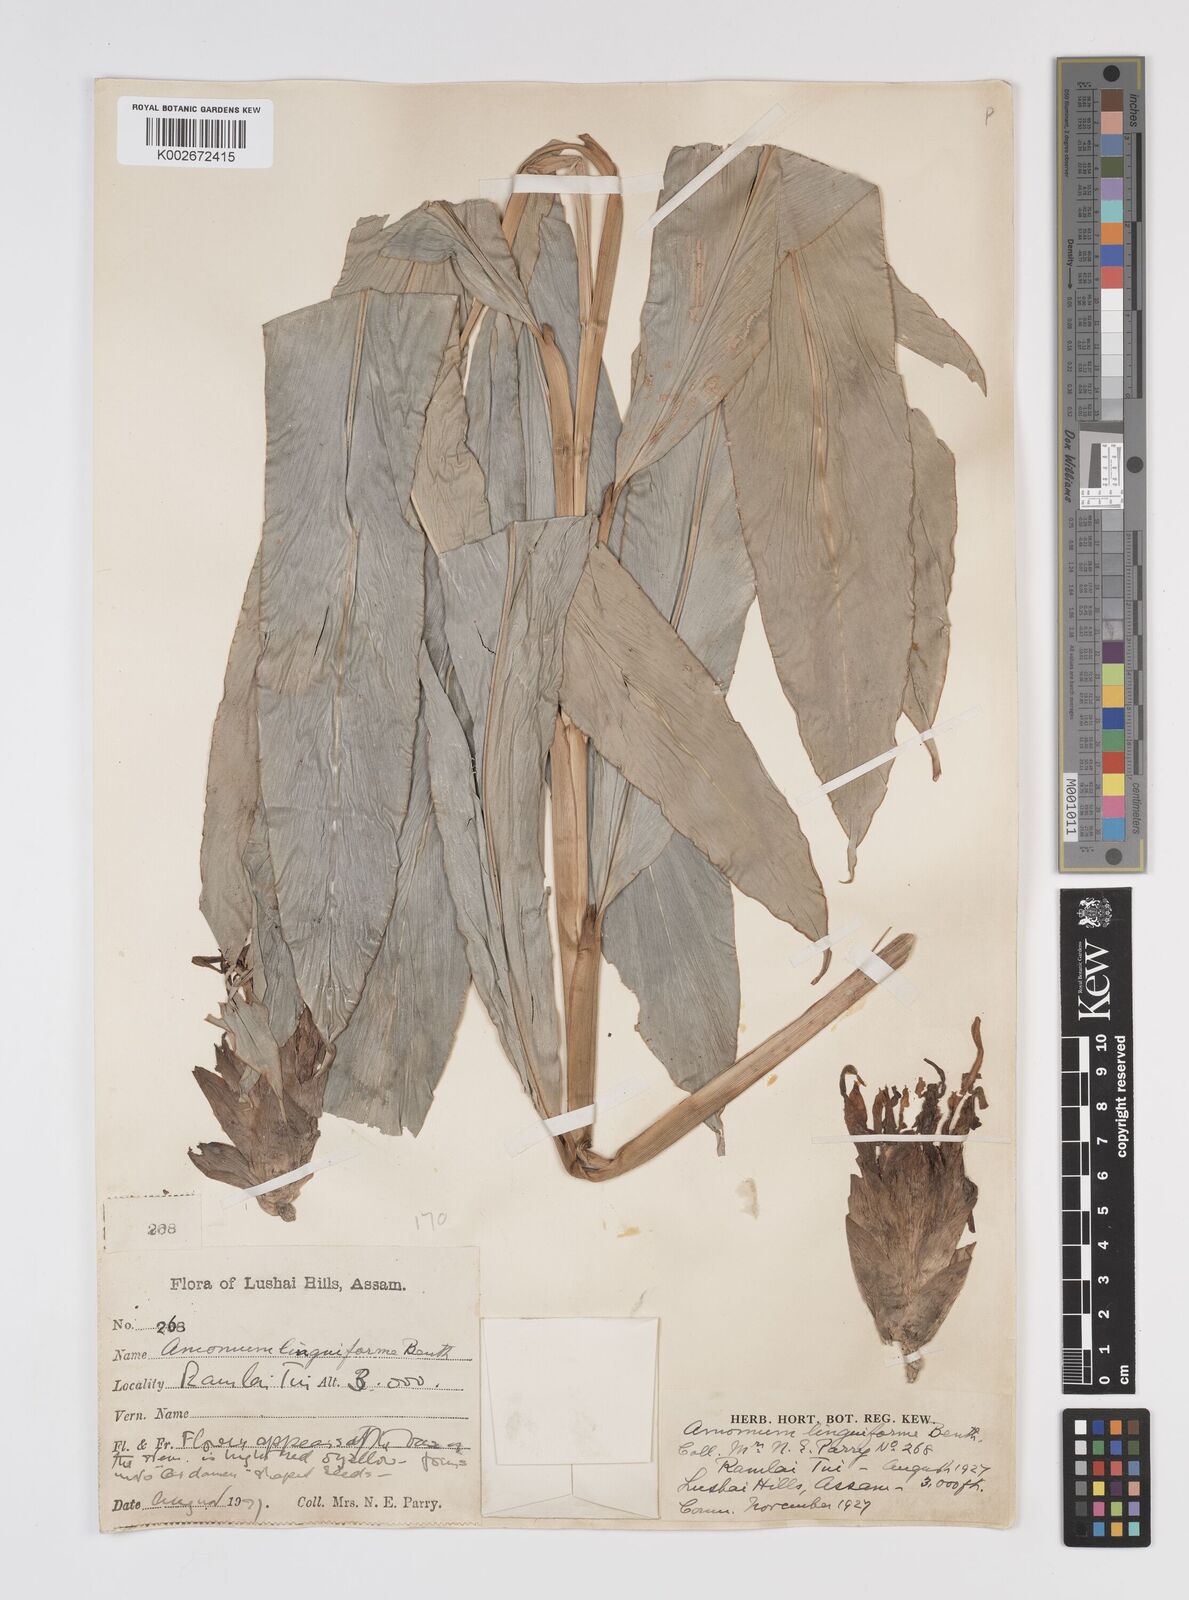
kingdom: Plantae
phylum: Tracheophyta
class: Liliopsida
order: Zingiberales
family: Zingiberaceae
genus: Etlingera
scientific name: Etlingera linguiformis
